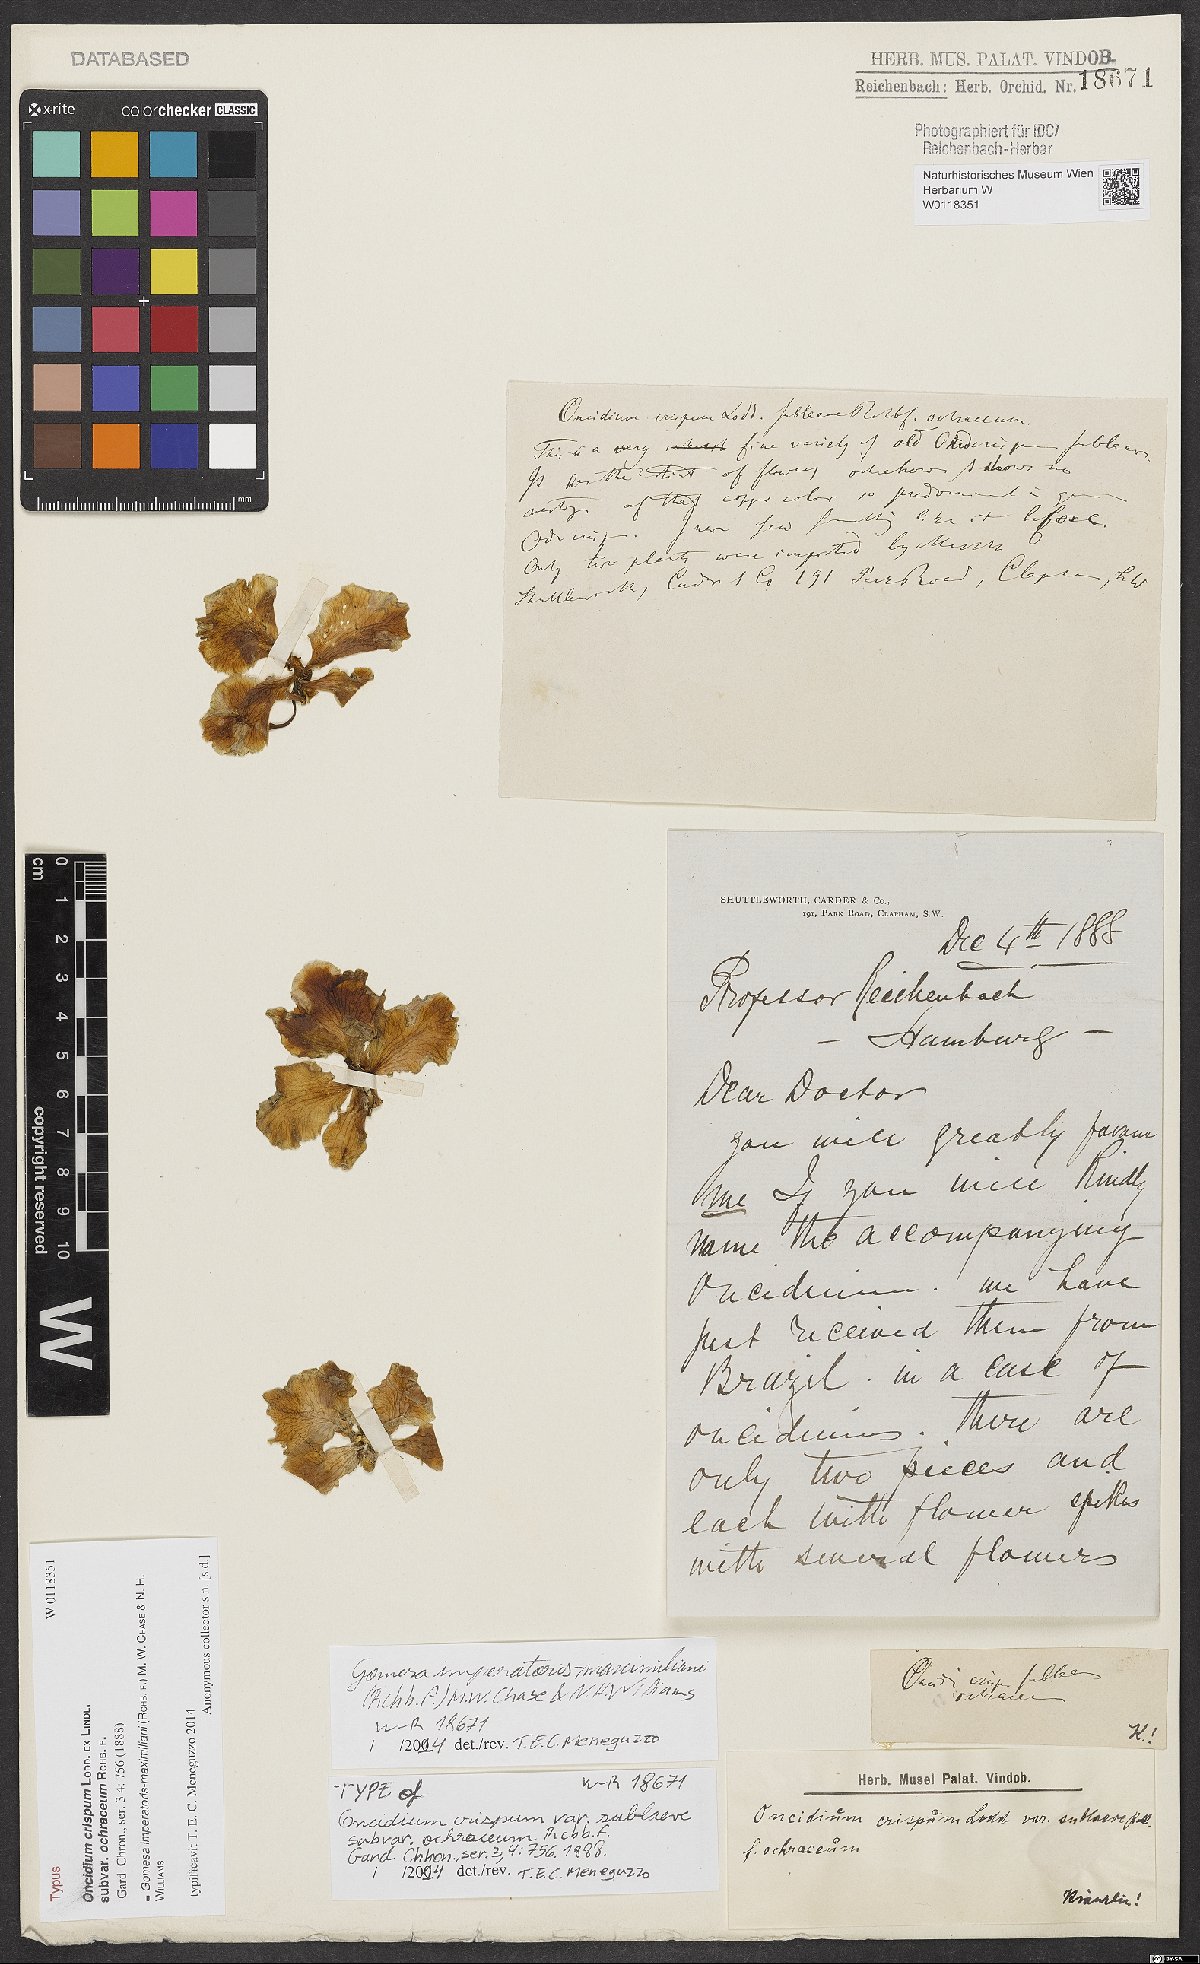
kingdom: Plantae
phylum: Tracheophyta
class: Liliopsida
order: Asparagales
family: Orchidaceae
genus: Gomesa
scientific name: Gomesa imperatoris-maximiliani
